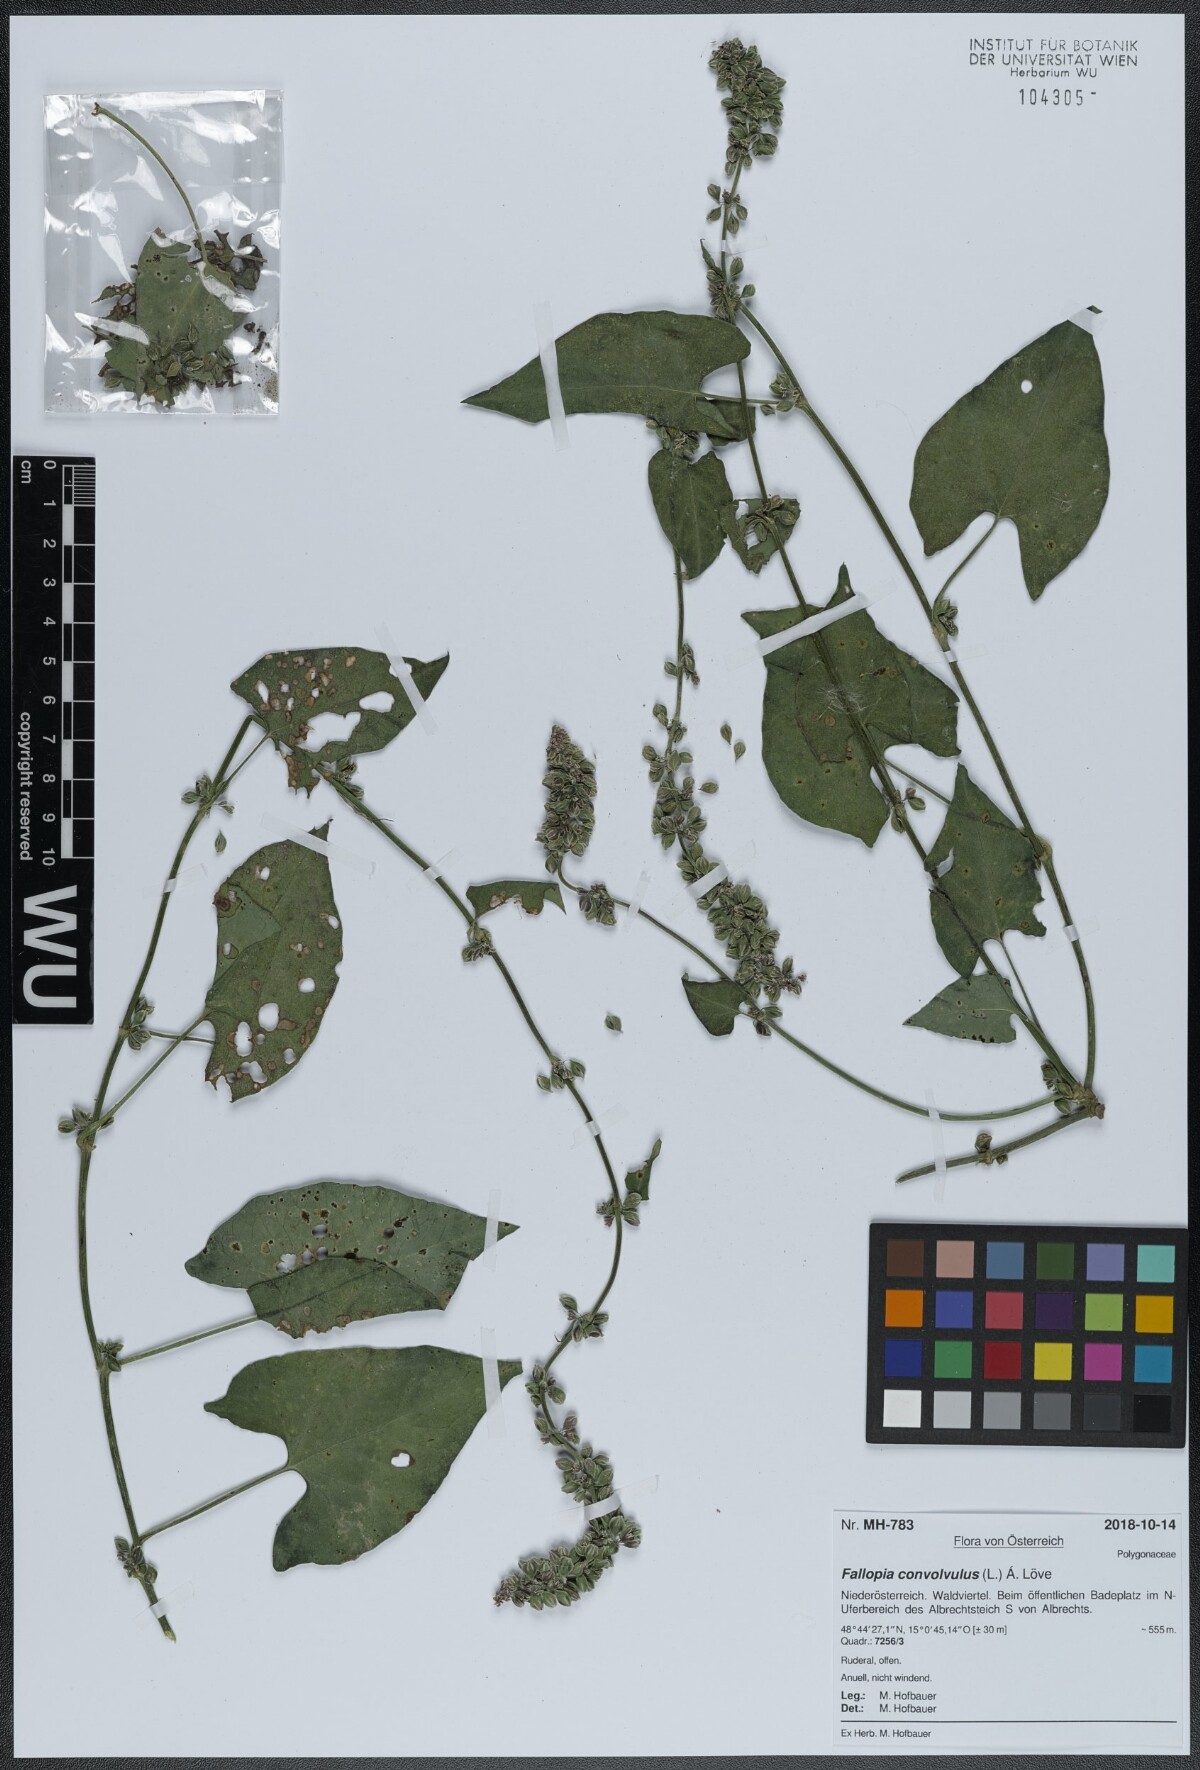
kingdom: Plantae
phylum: Tracheophyta
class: Magnoliopsida
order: Caryophyllales
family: Polygonaceae
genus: Fallopia
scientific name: Fallopia convolvulus
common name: Black bindweed
